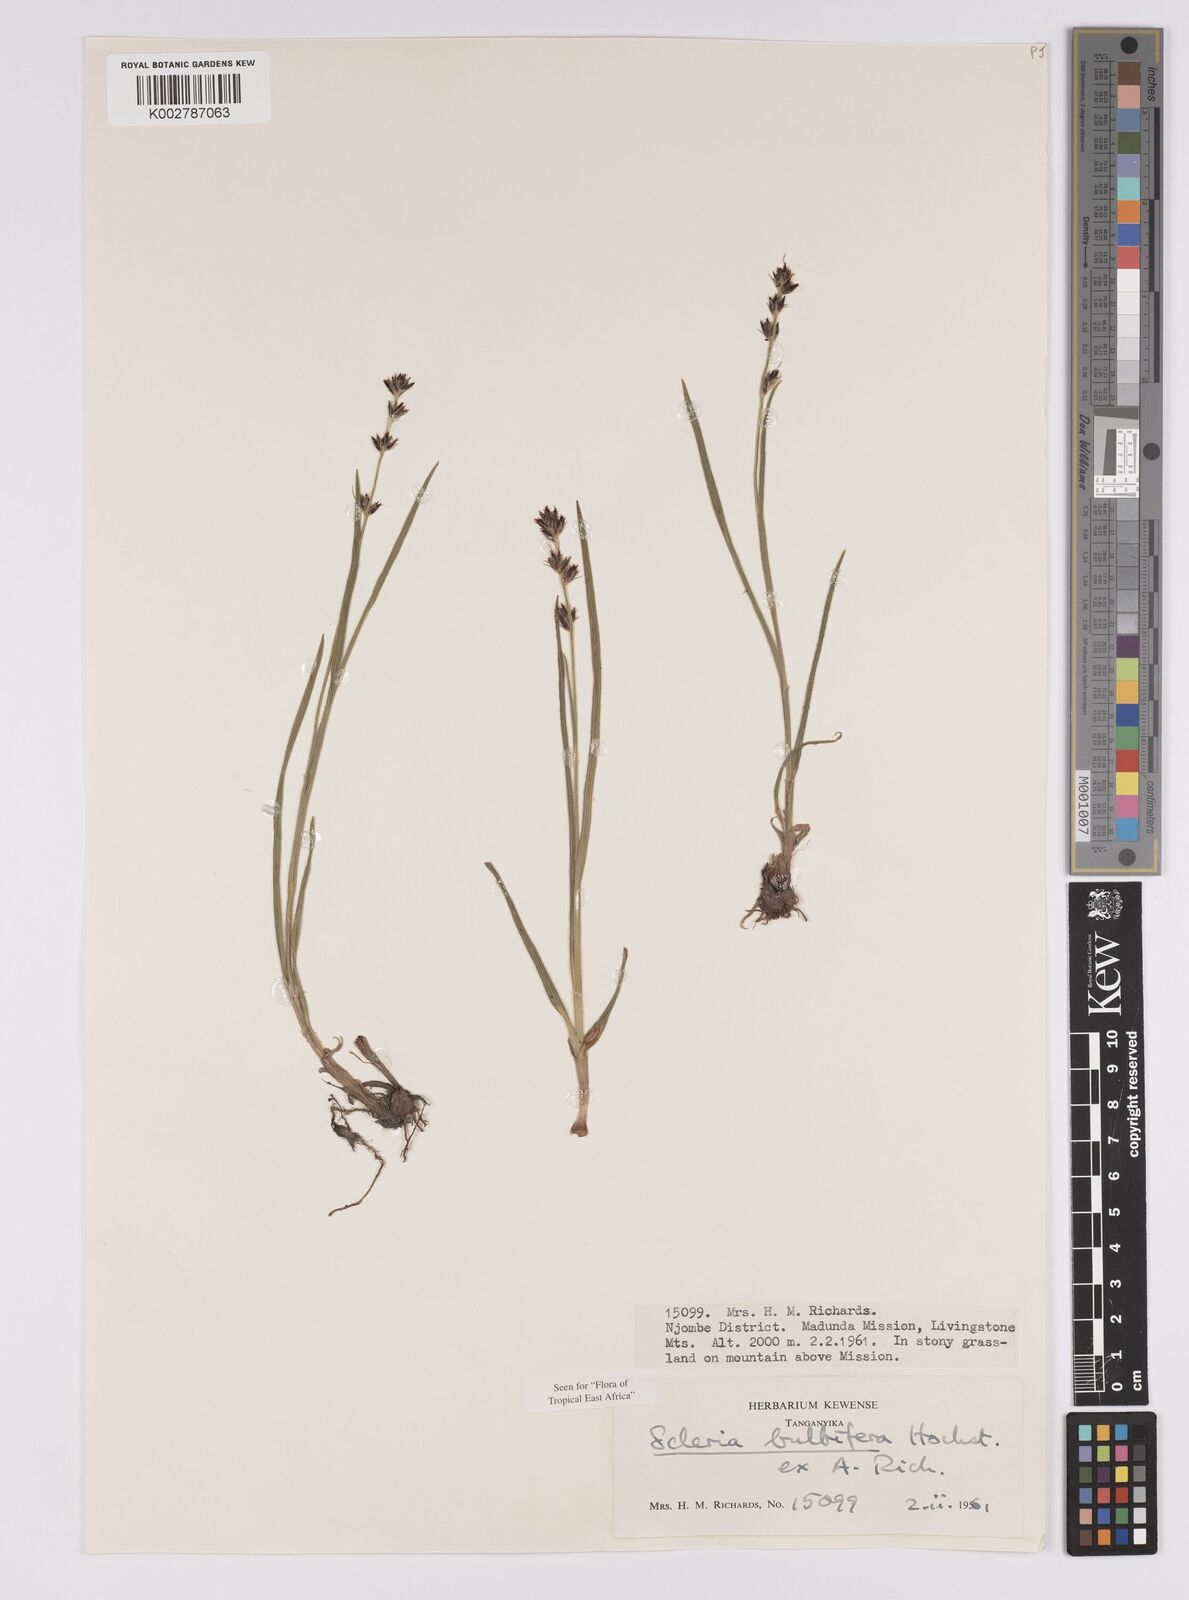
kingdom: Plantae
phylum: Tracheophyta
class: Liliopsida
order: Poales
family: Cyperaceae
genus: Scleria
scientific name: Scleria bulbifera
